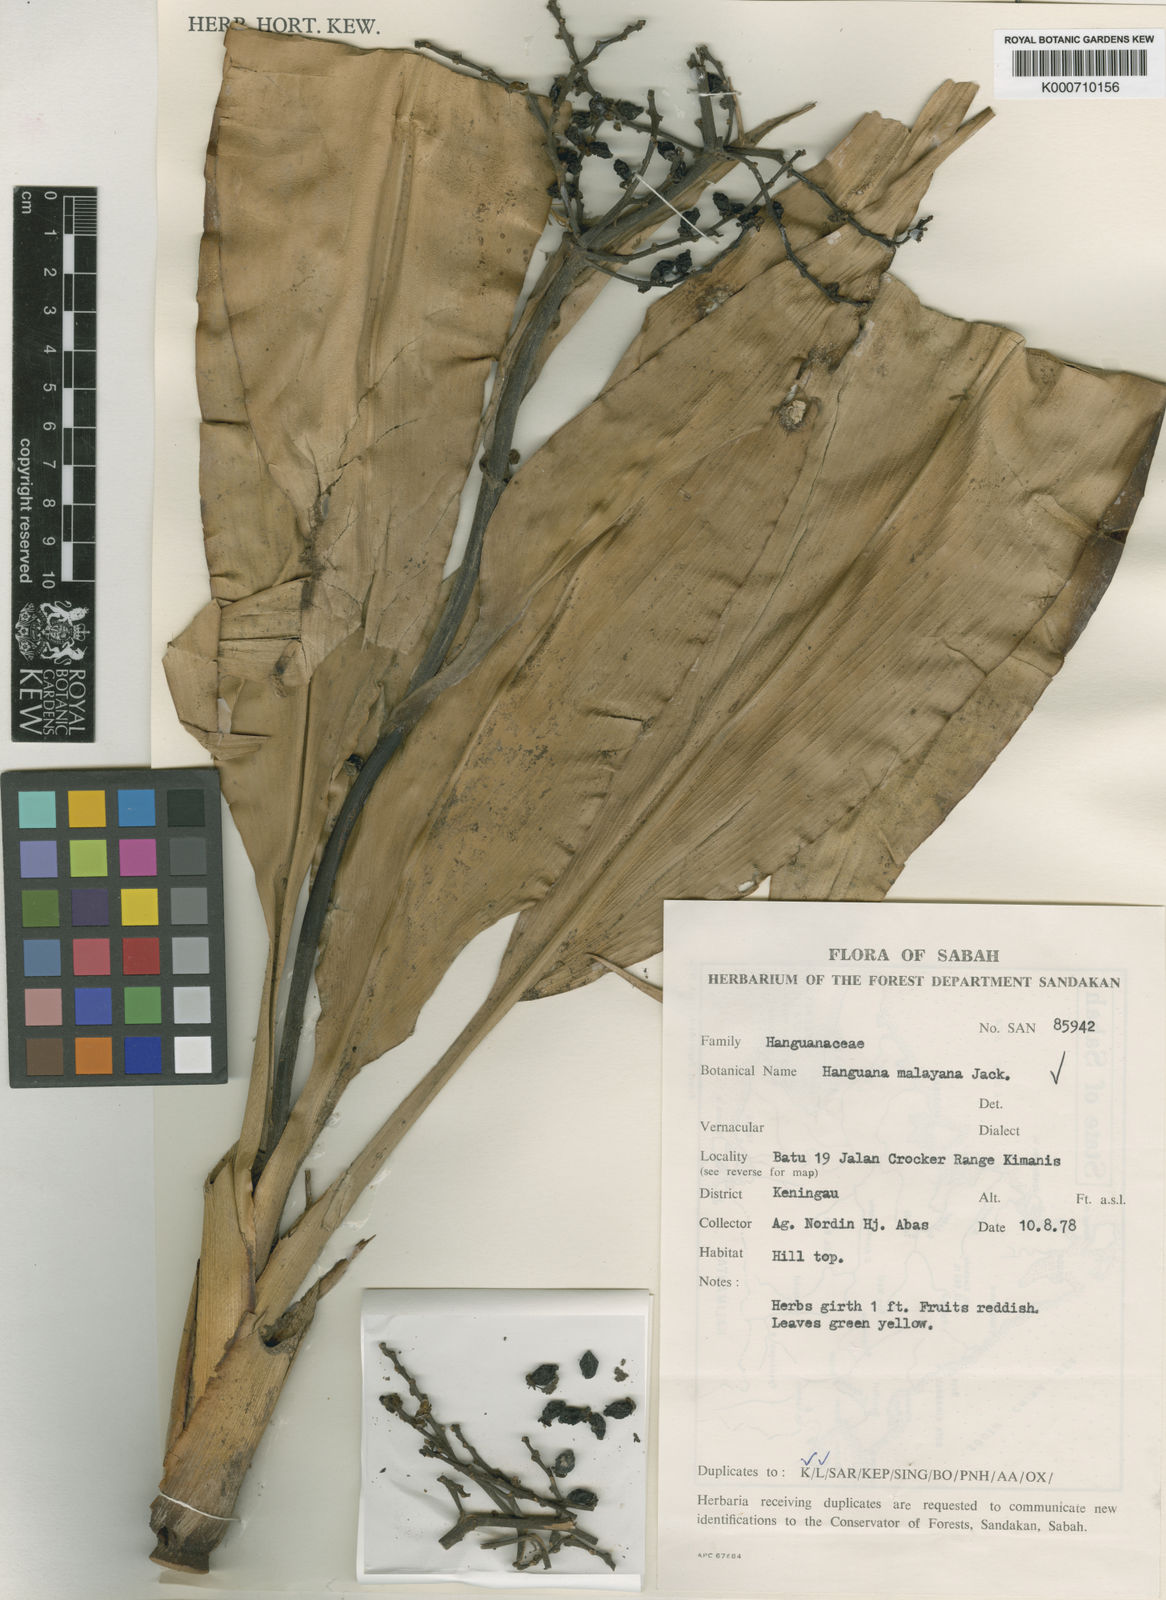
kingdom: Plantae
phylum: Tracheophyta
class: Liliopsida
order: Commelinales
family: Hanguanaceae
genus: Hanguana
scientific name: Hanguana malayana
